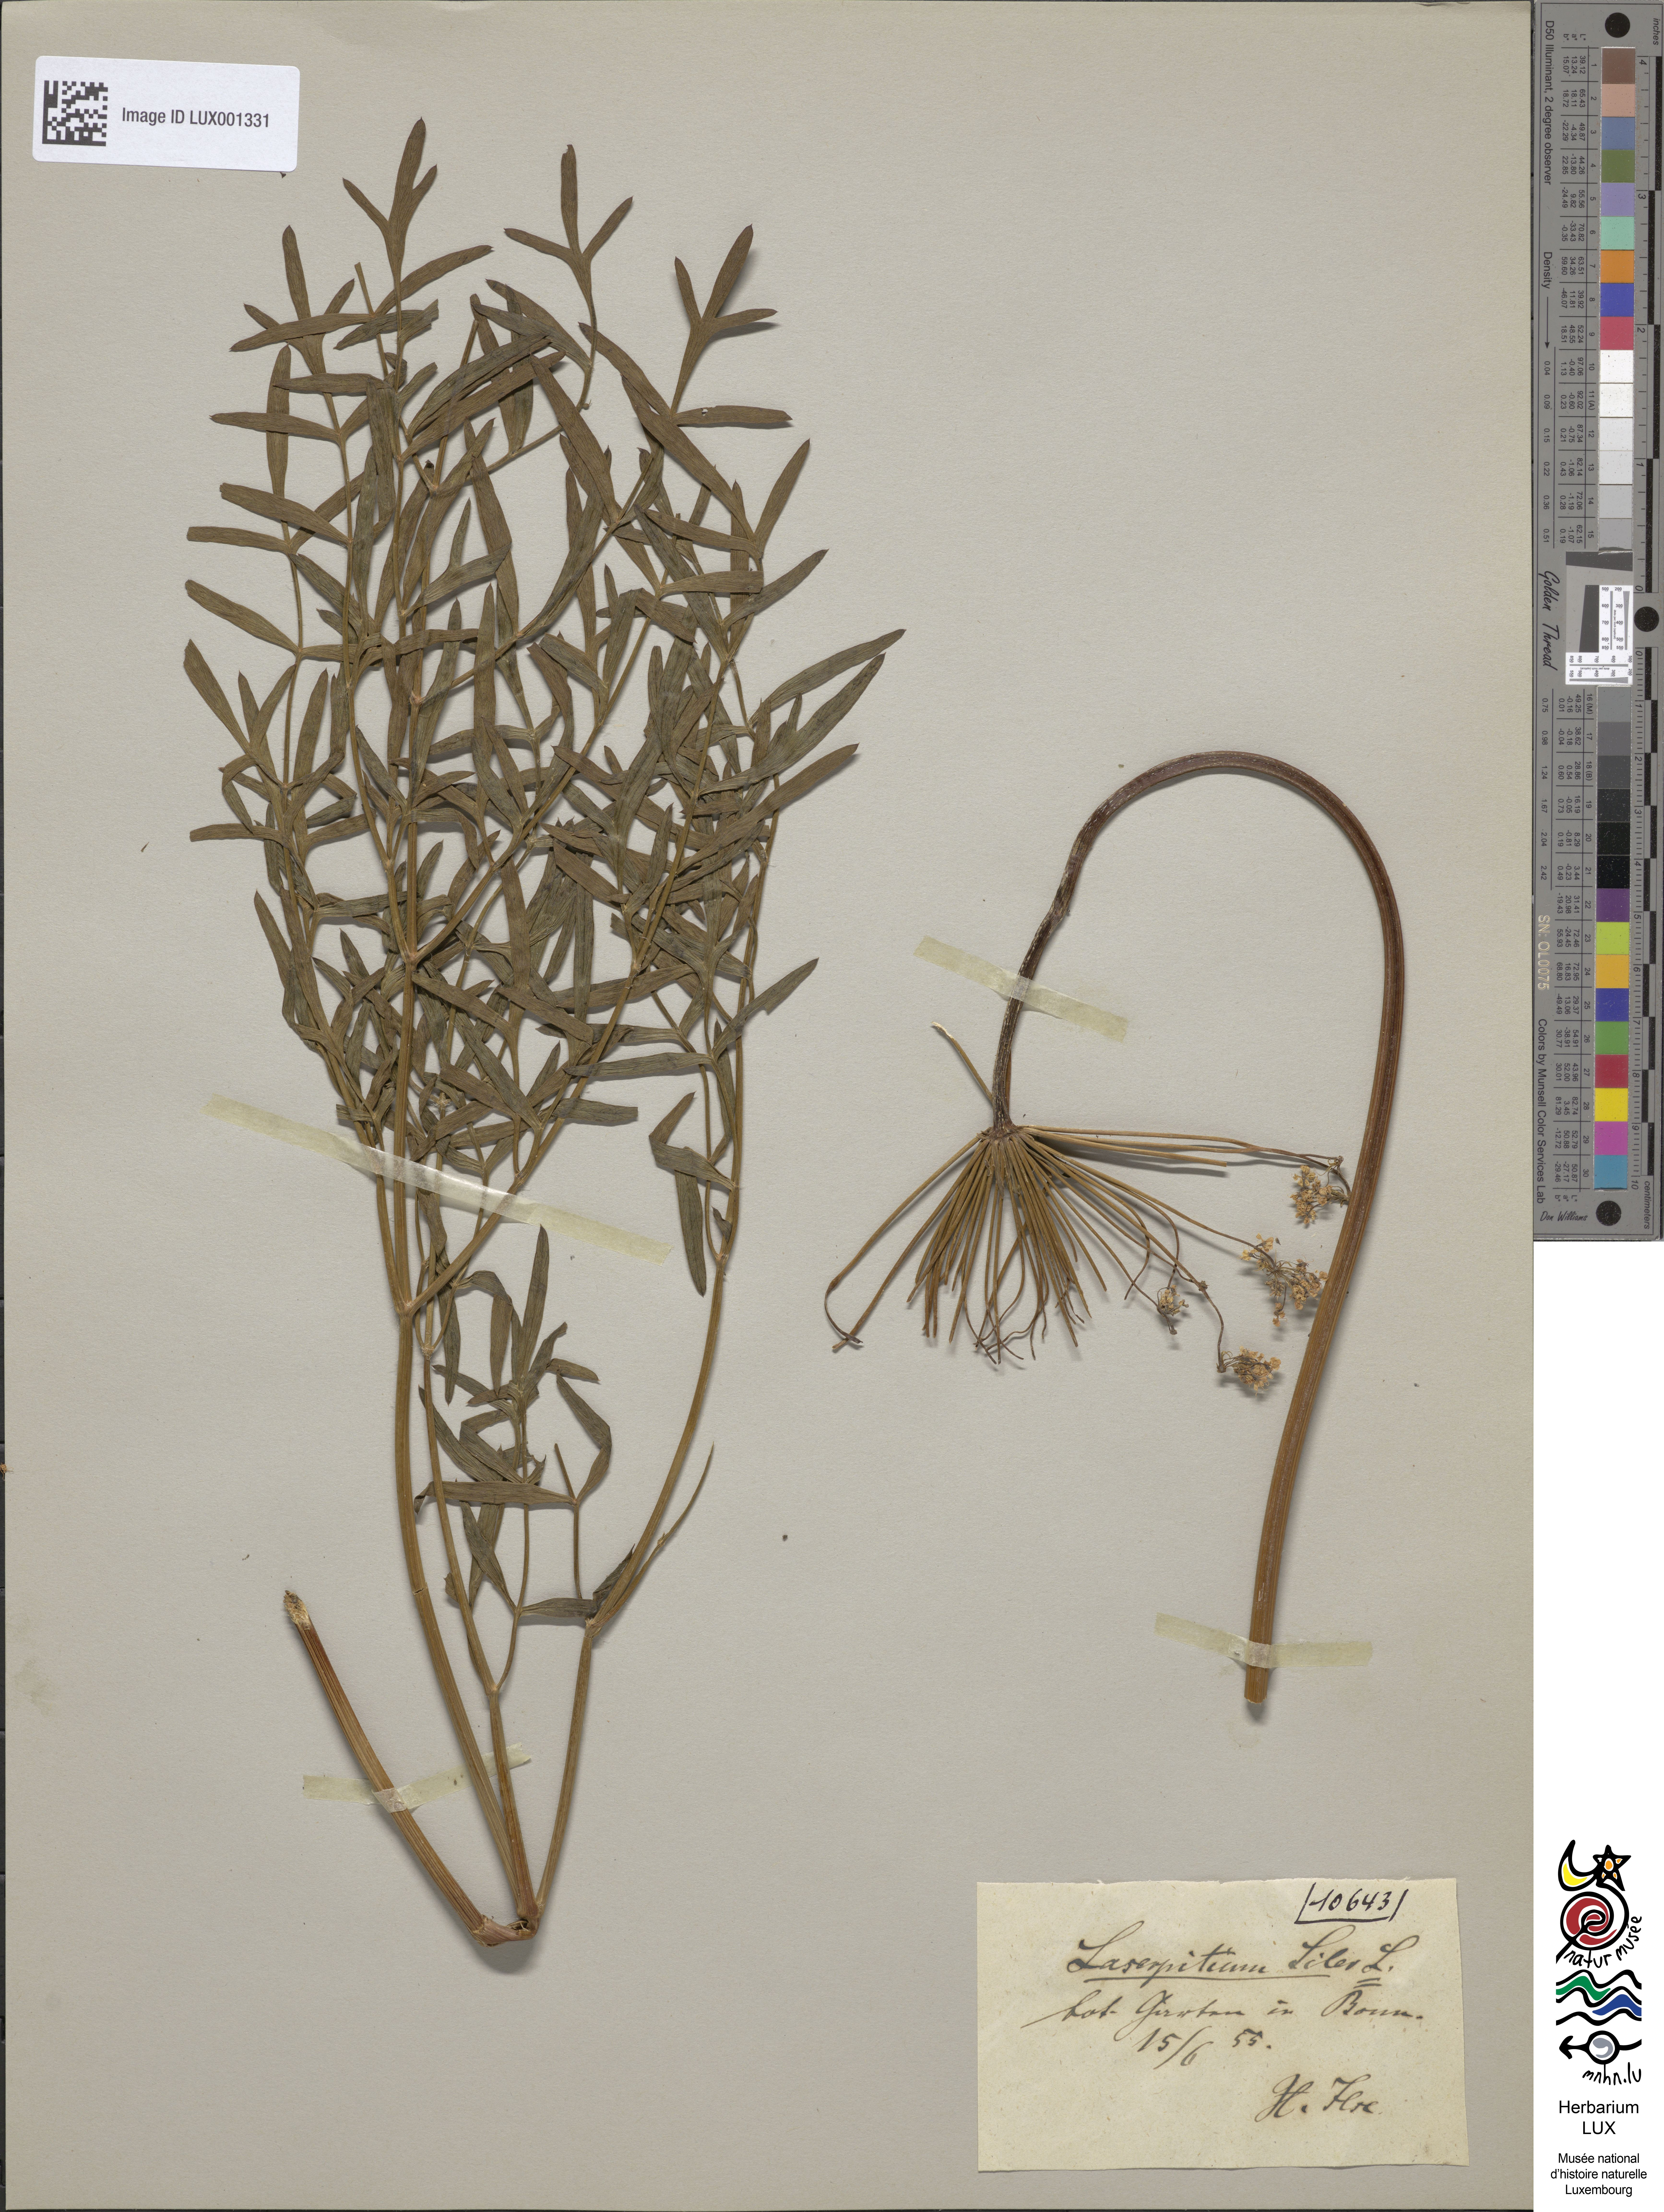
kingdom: Plantae
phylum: Tracheophyta
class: Magnoliopsida
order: Apiales
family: Apiaceae
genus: Siler
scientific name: Siler montanum
